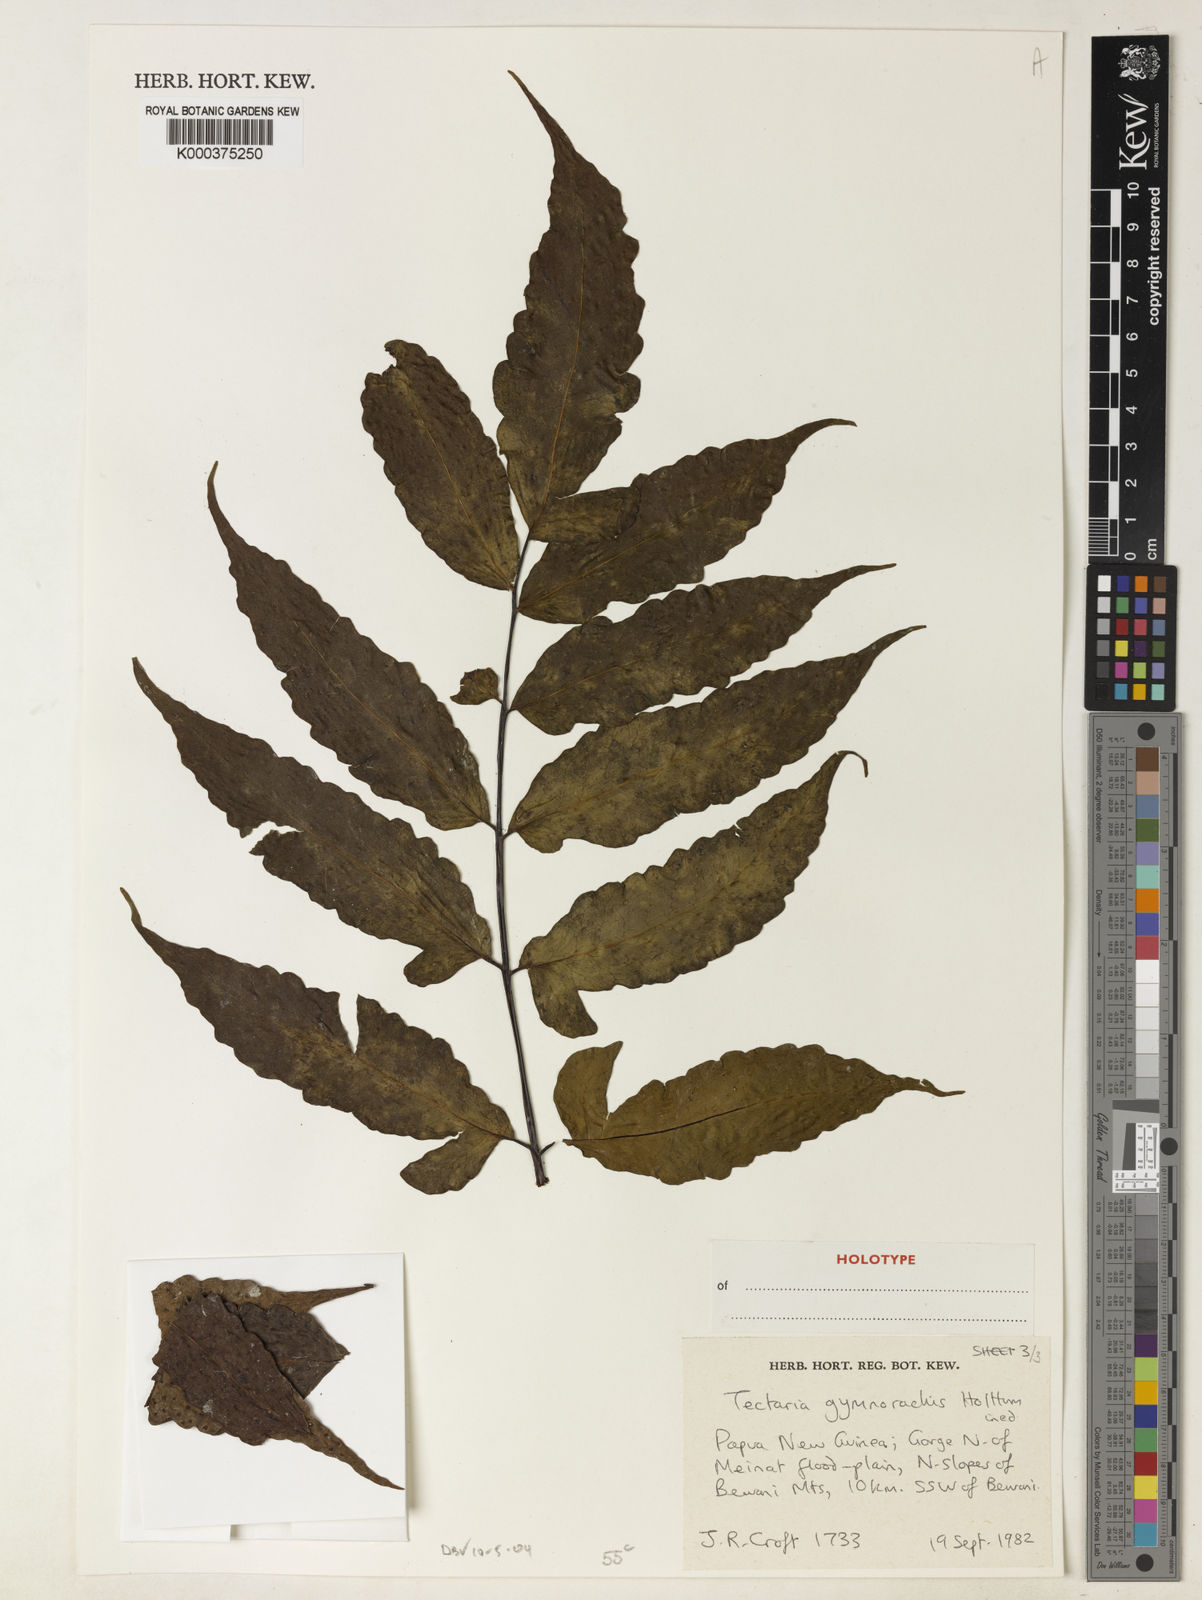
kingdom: Plantae
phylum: Tracheophyta
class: Polypodiopsida
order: Polypodiales
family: Tectariaceae
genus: Tectaria
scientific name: Tectaria isomorpha
